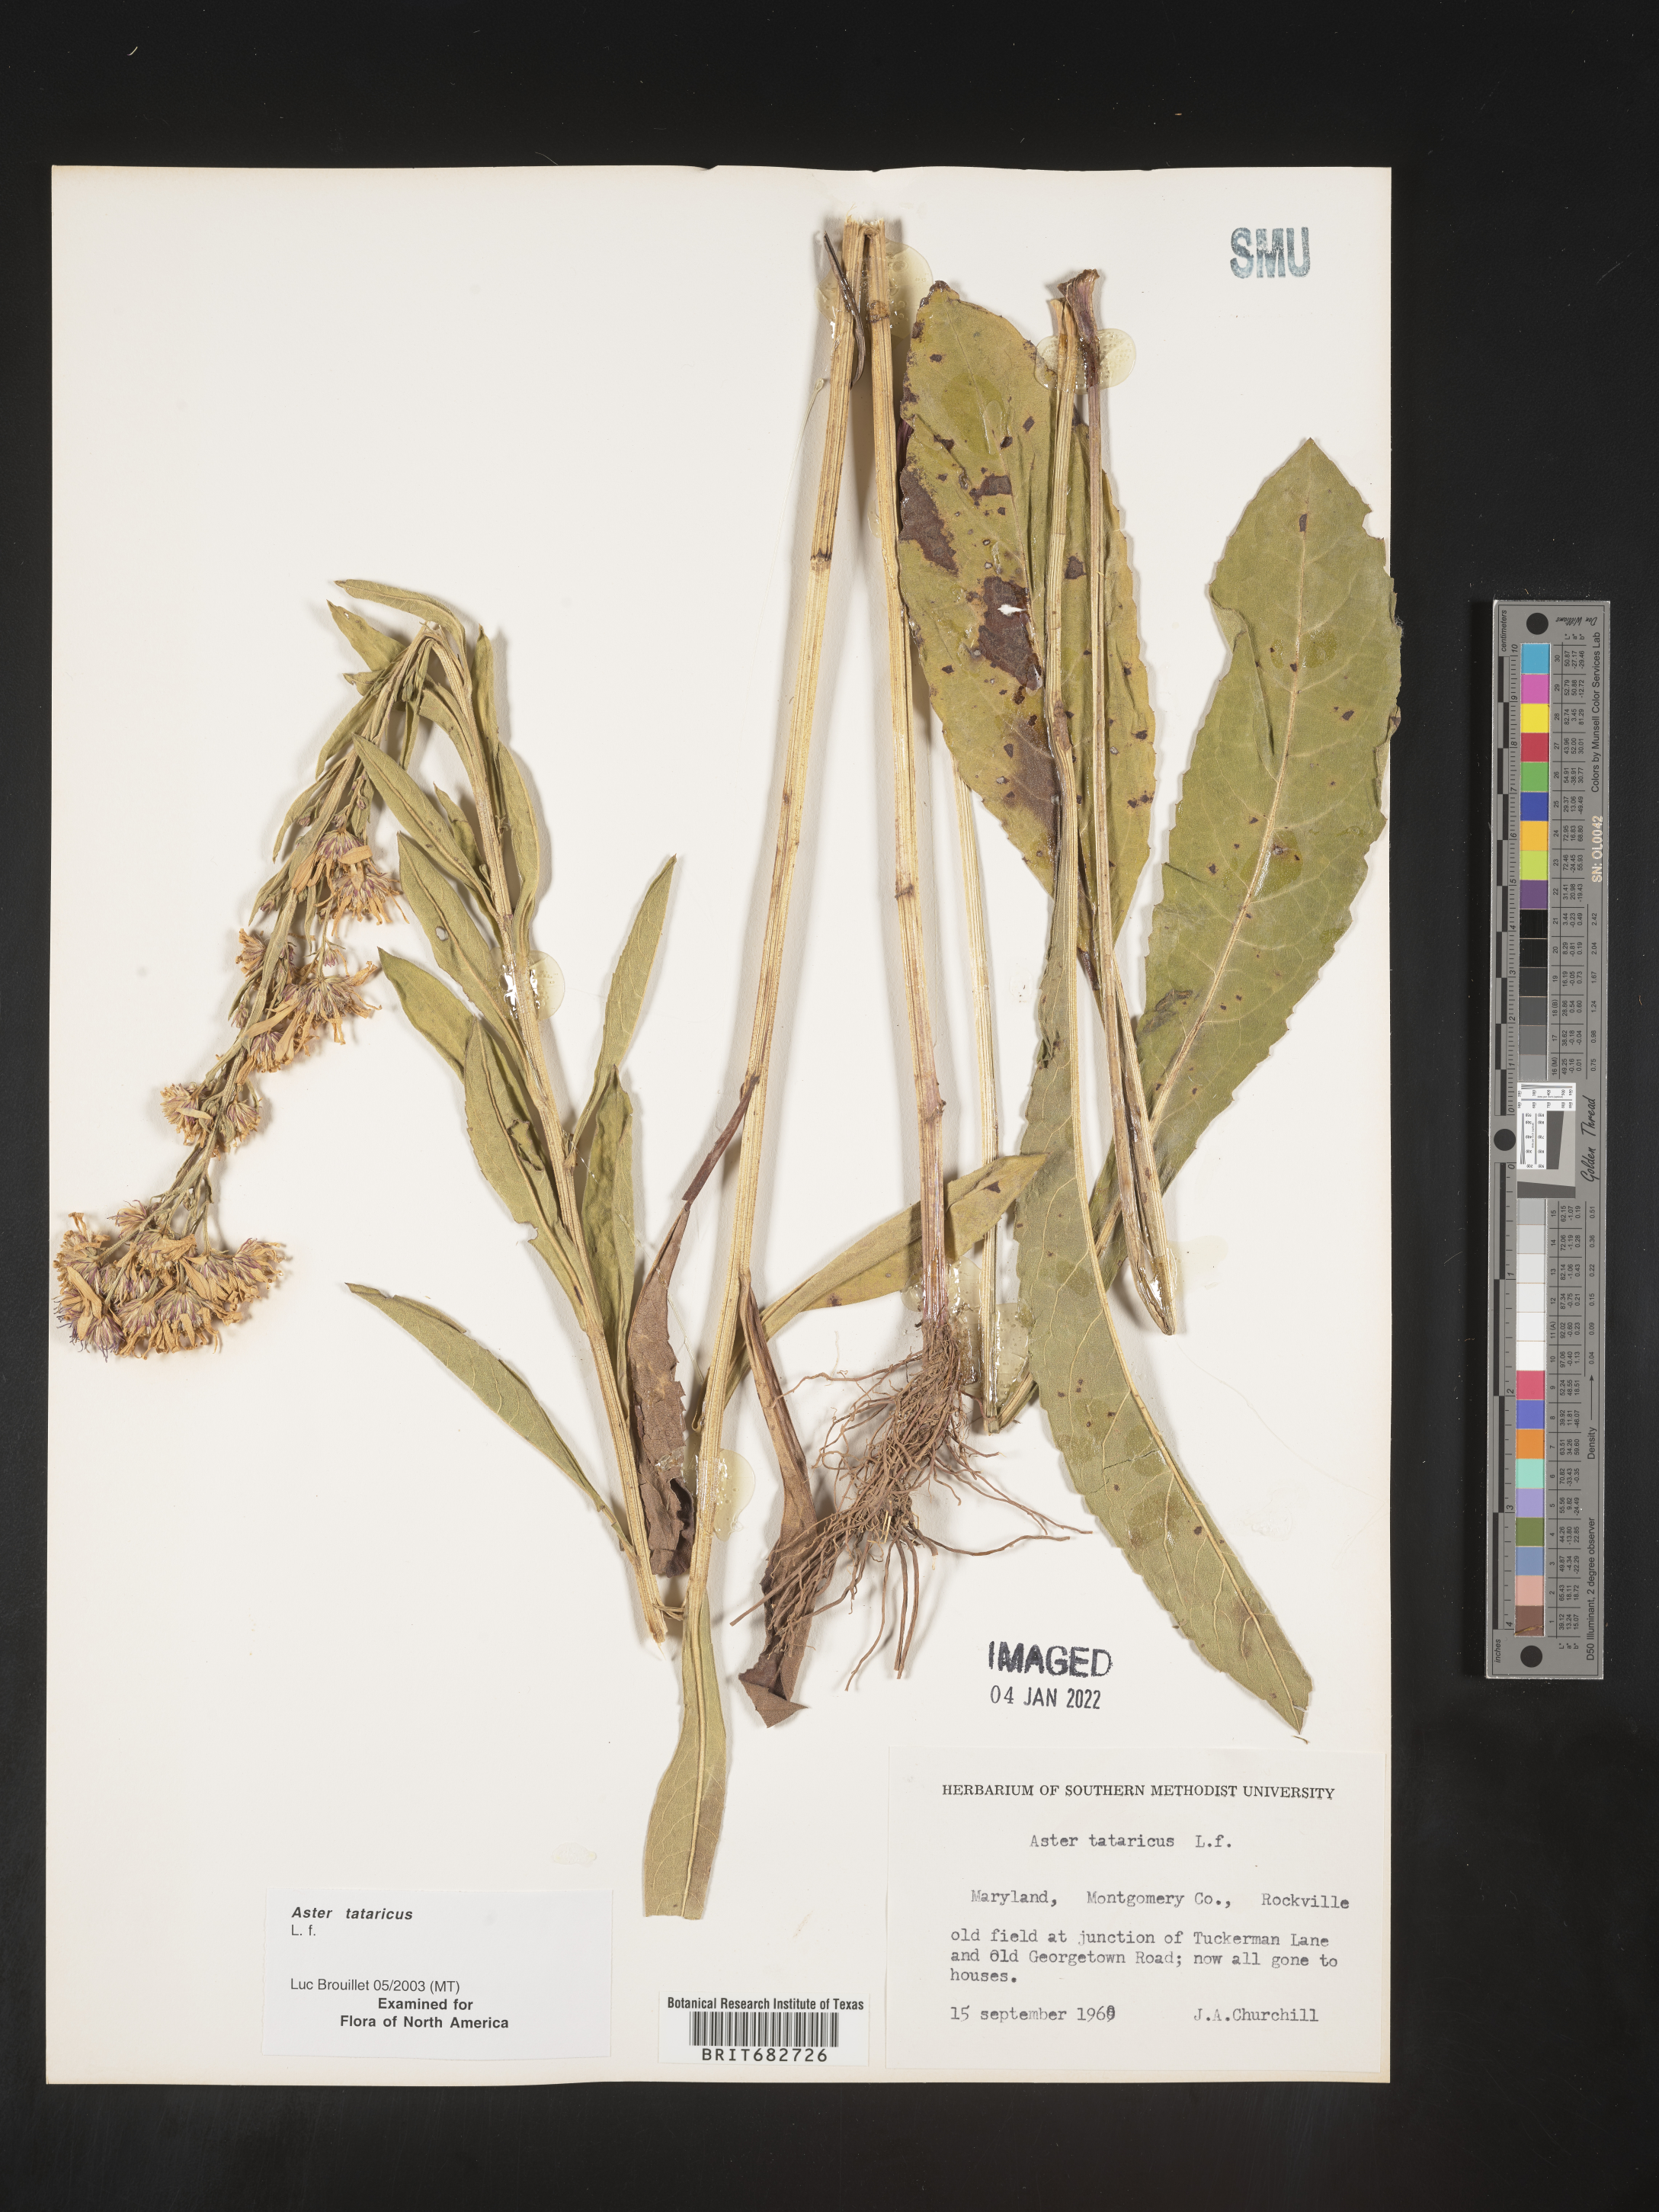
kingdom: Plantae
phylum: Tracheophyta
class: Magnoliopsida
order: Asterales
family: Asteraceae
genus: Aster
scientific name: Aster tataricus
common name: Tatarian aster
